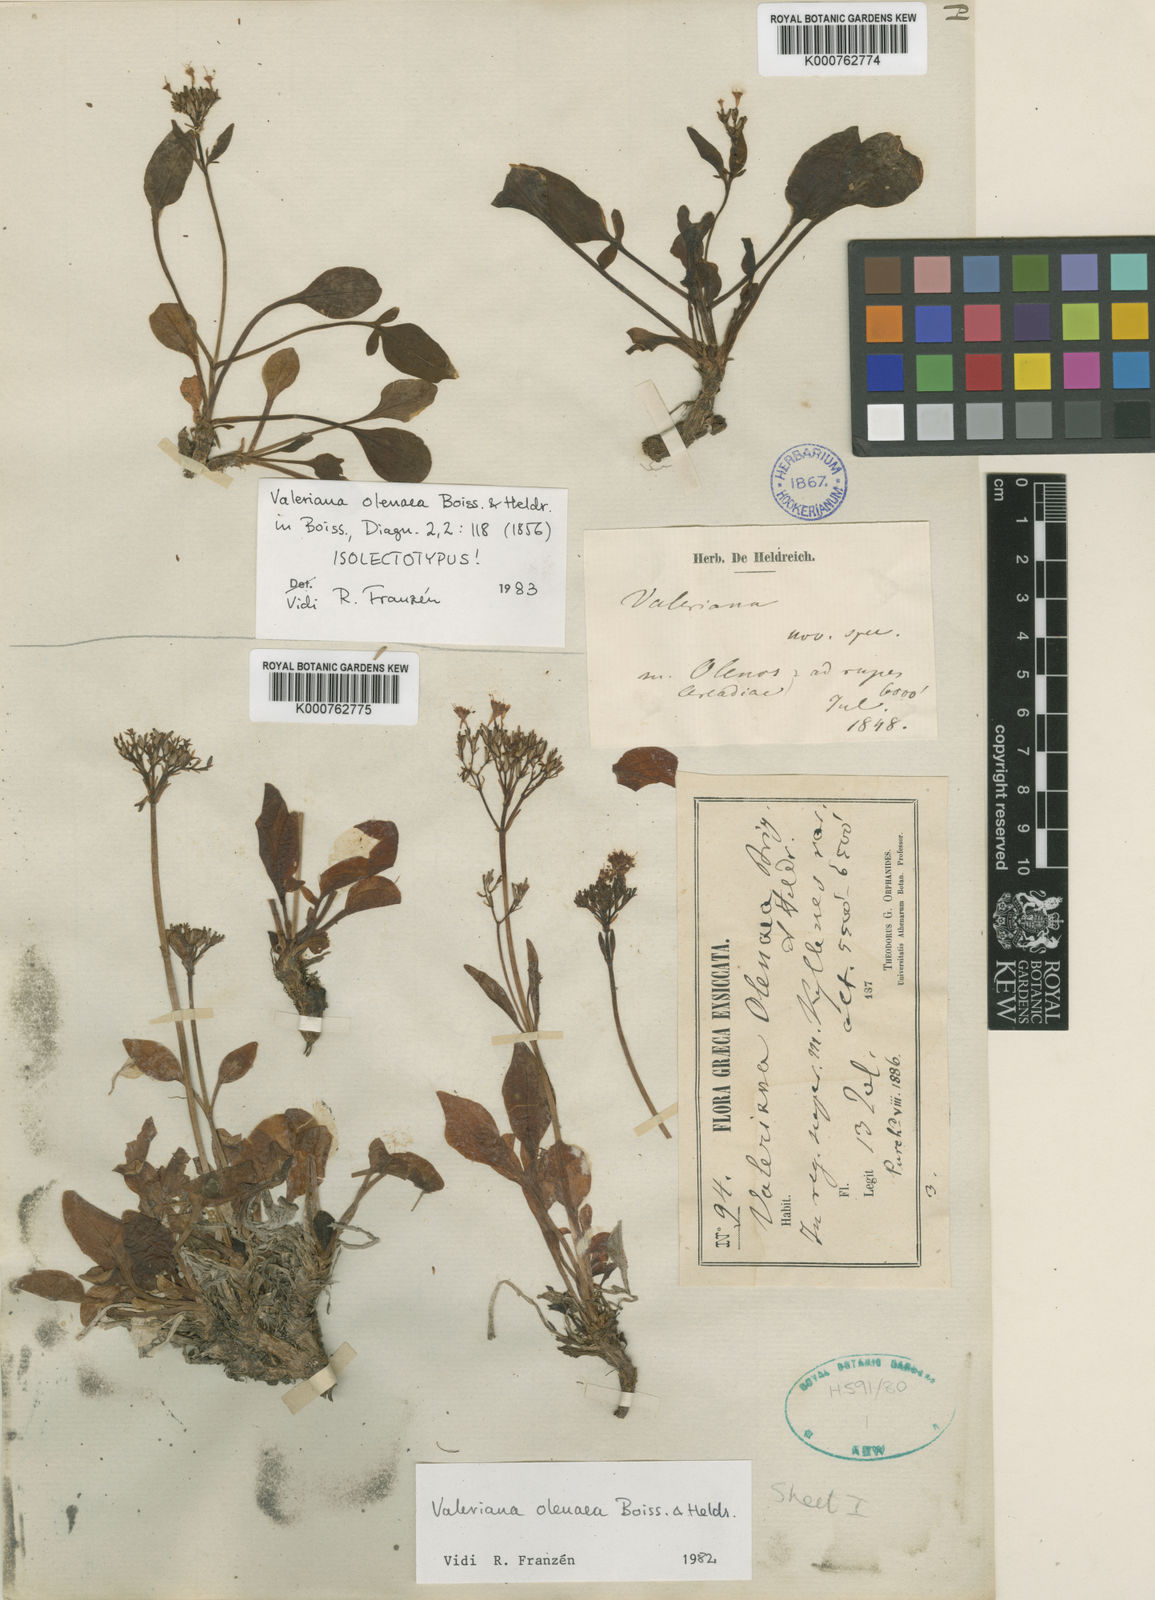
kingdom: Plantae
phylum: Tracheophyta
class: Magnoliopsida
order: Dipsacales
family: Caprifoliaceae
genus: Valeriana
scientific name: Valeriana olenaea
